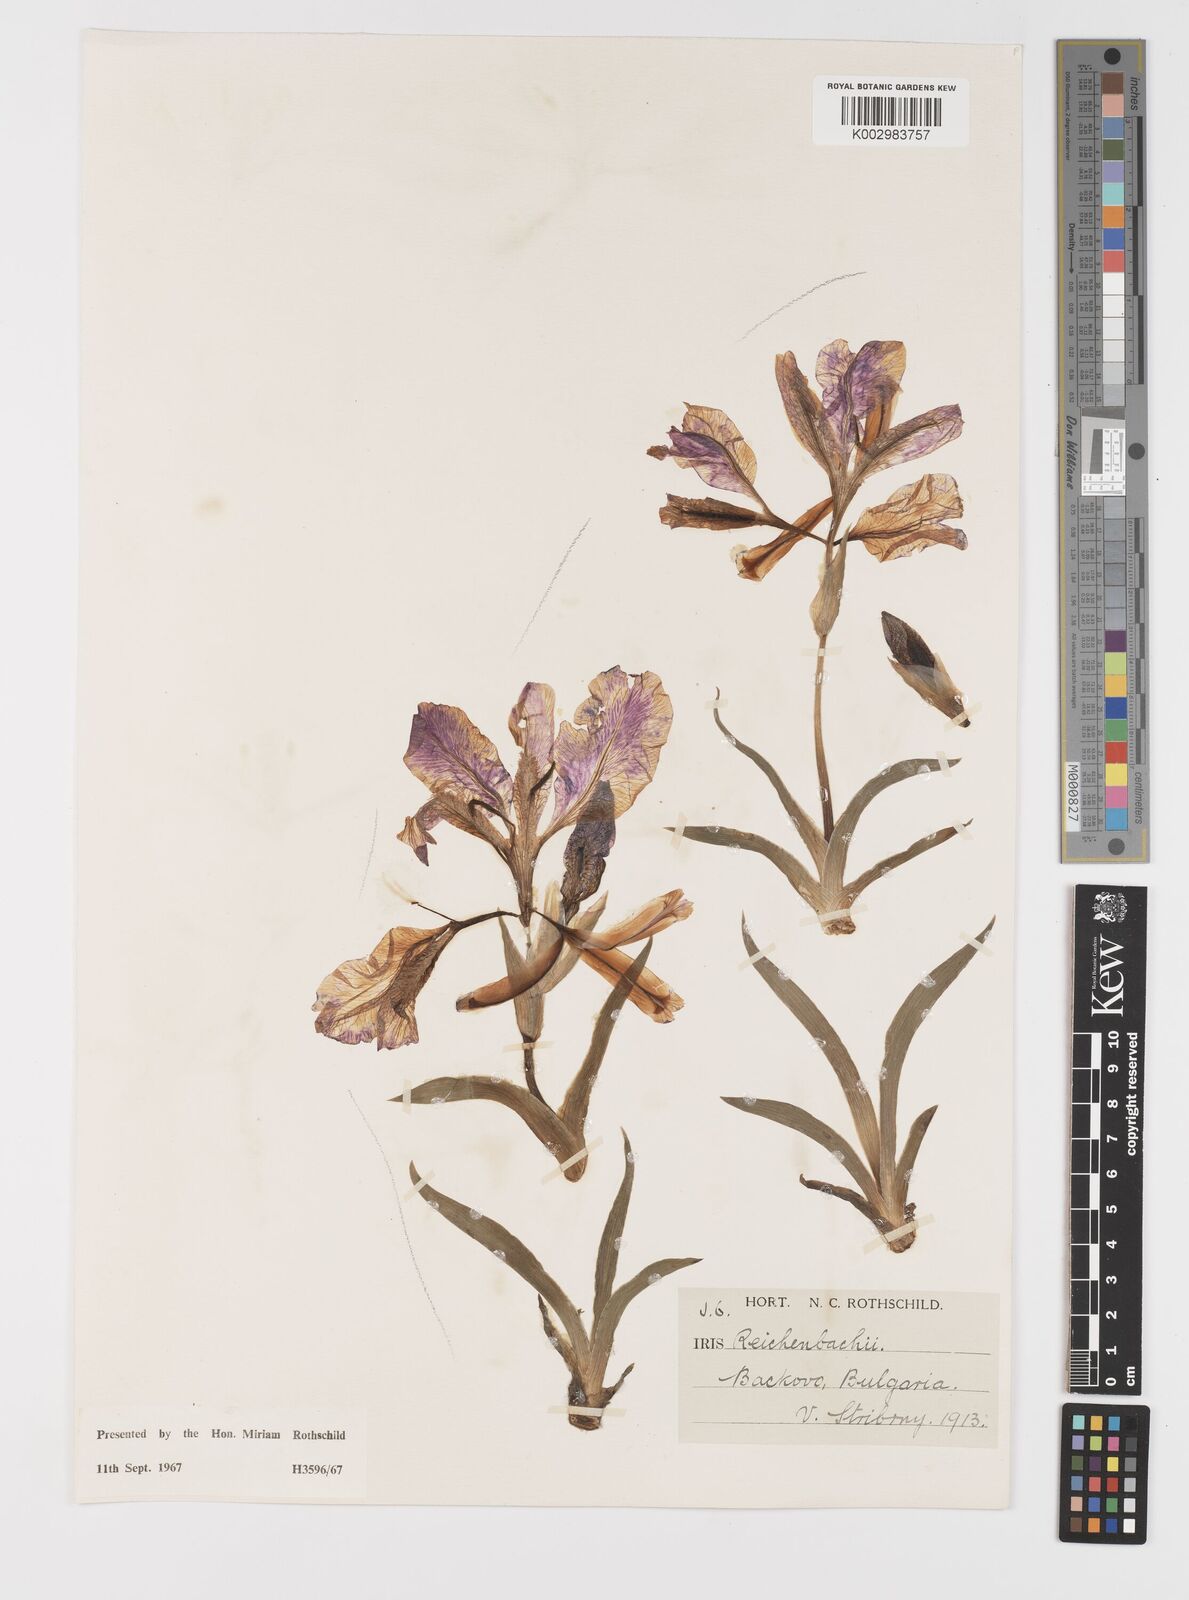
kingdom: Plantae
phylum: Tracheophyta
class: Liliopsida
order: Asparagales
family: Iridaceae
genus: Iris
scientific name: Iris reichenbachii
